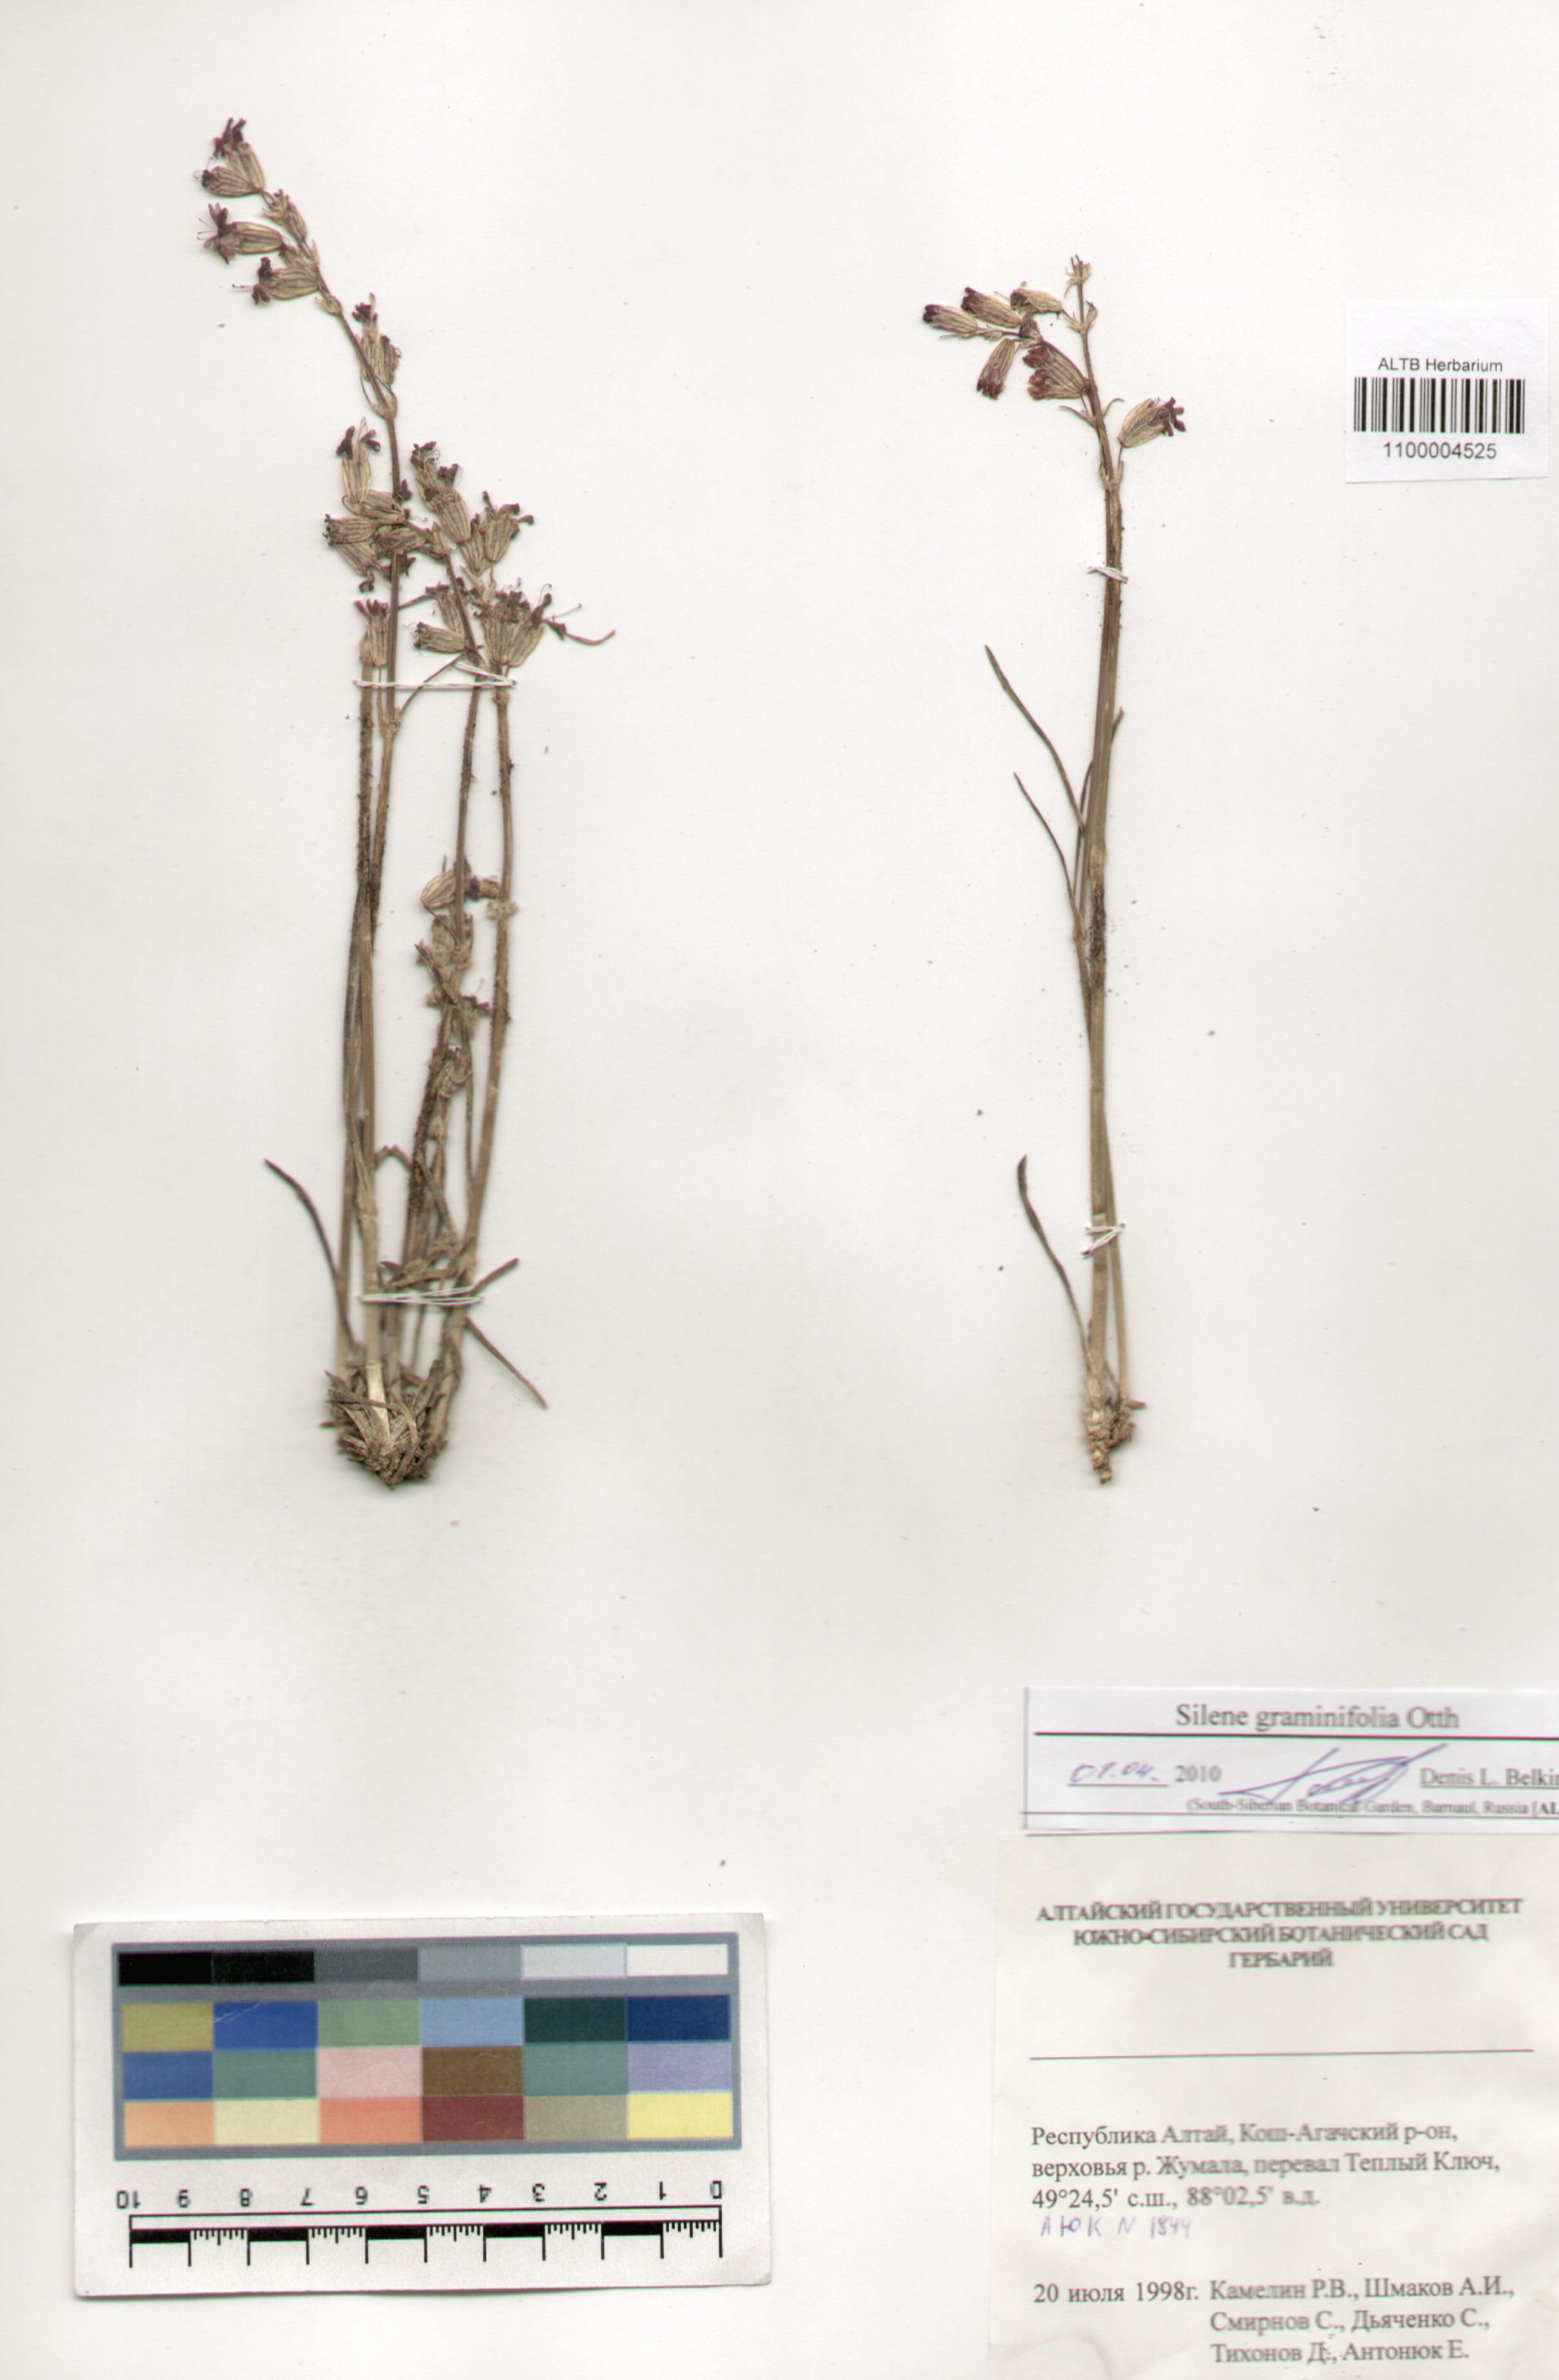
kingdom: Plantae
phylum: Tracheophyta
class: Magnoliopsida
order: Caryophyllales
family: Caryophyllaceae
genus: Silene
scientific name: Silene graminifolia
